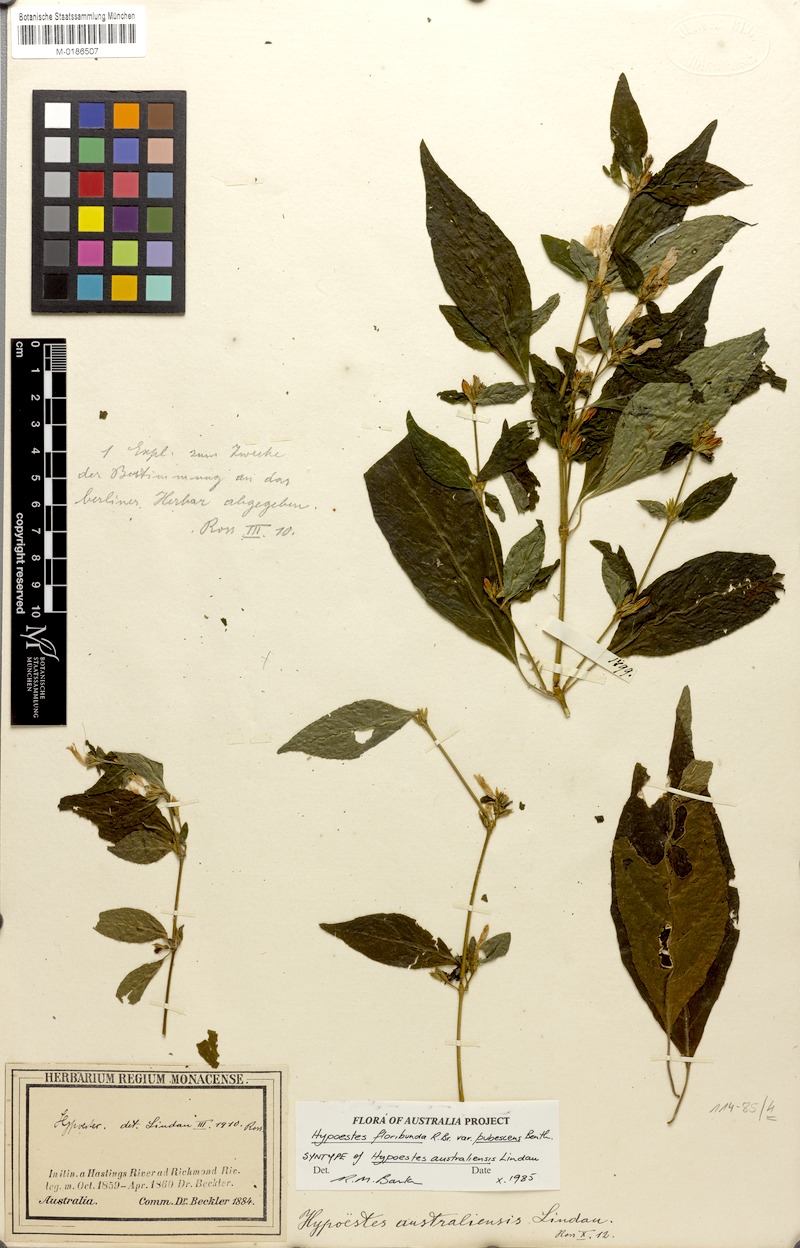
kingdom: Plantae
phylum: Tracheophyta
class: Magnoliopsida
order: Lamiales
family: Acanthaceae
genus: Hypoestes
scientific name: Hypoestes floribunda
